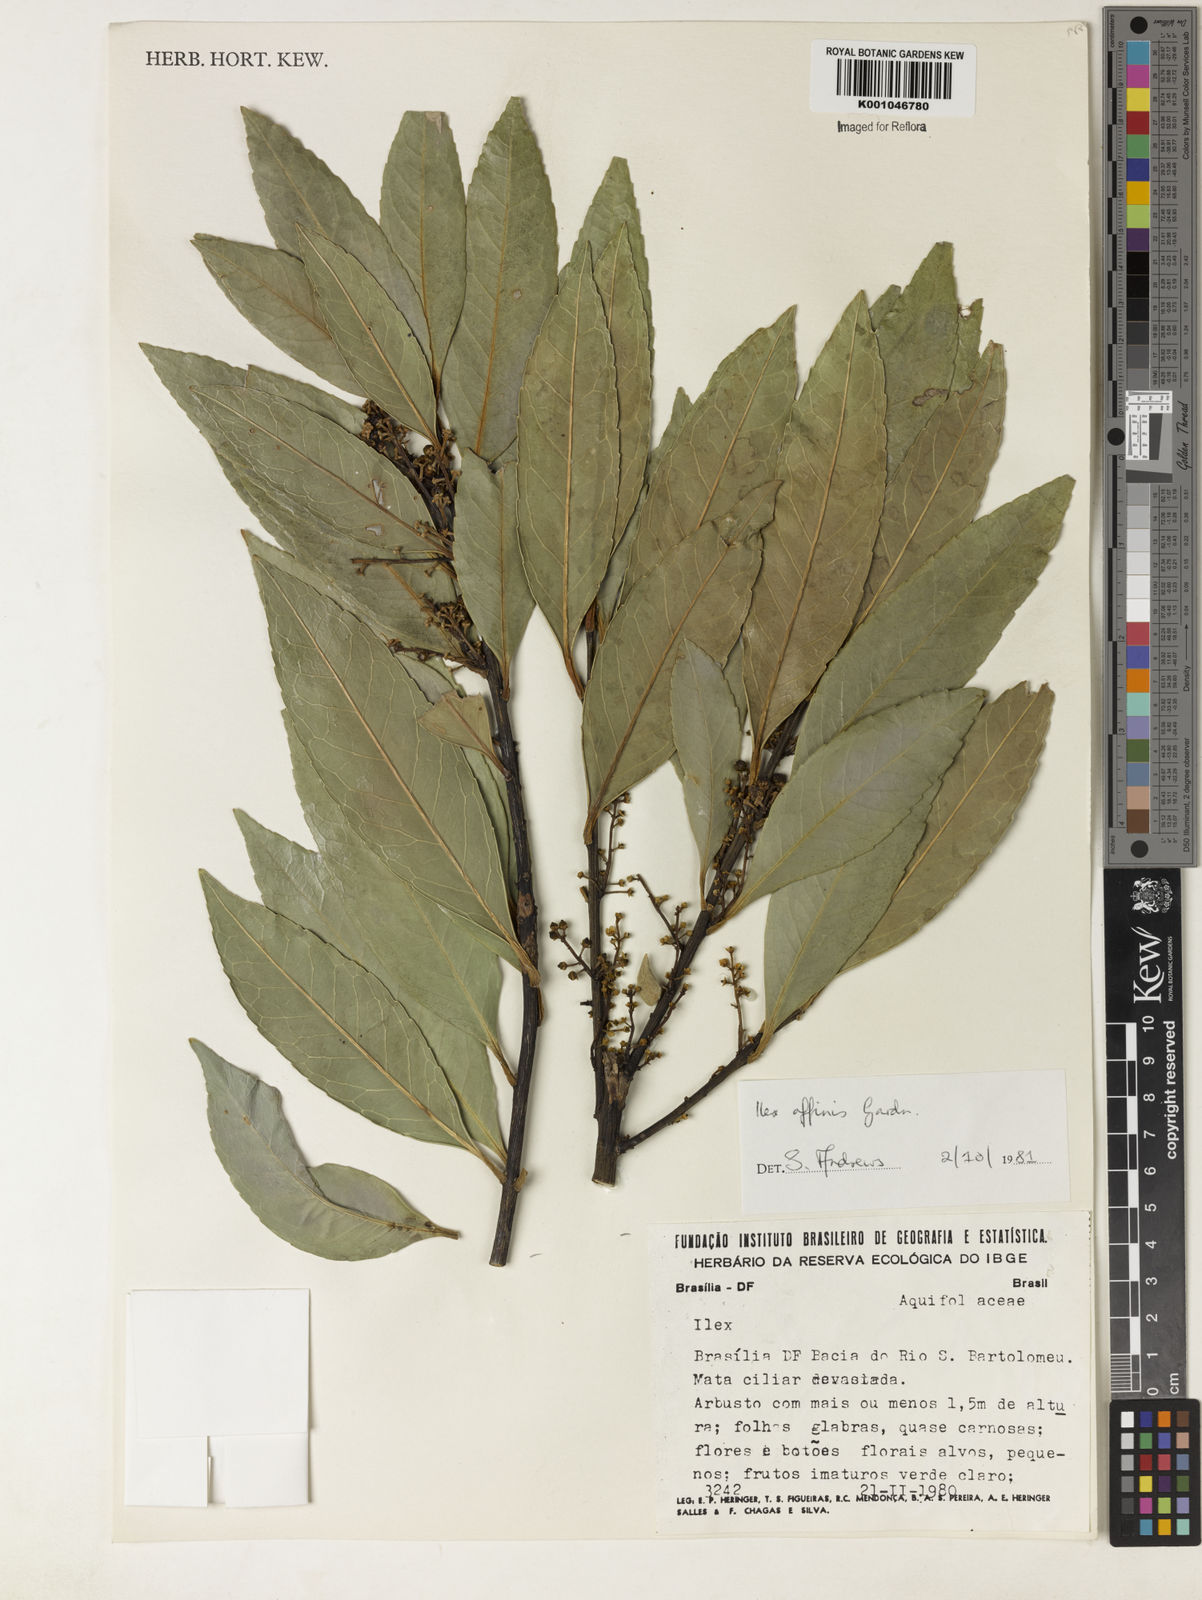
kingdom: Plantae
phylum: Tracheophyta
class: Magnoliopsida
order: Aquifoliales
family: Aquifoliaceae
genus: Ilex
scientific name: Ilex affinis
